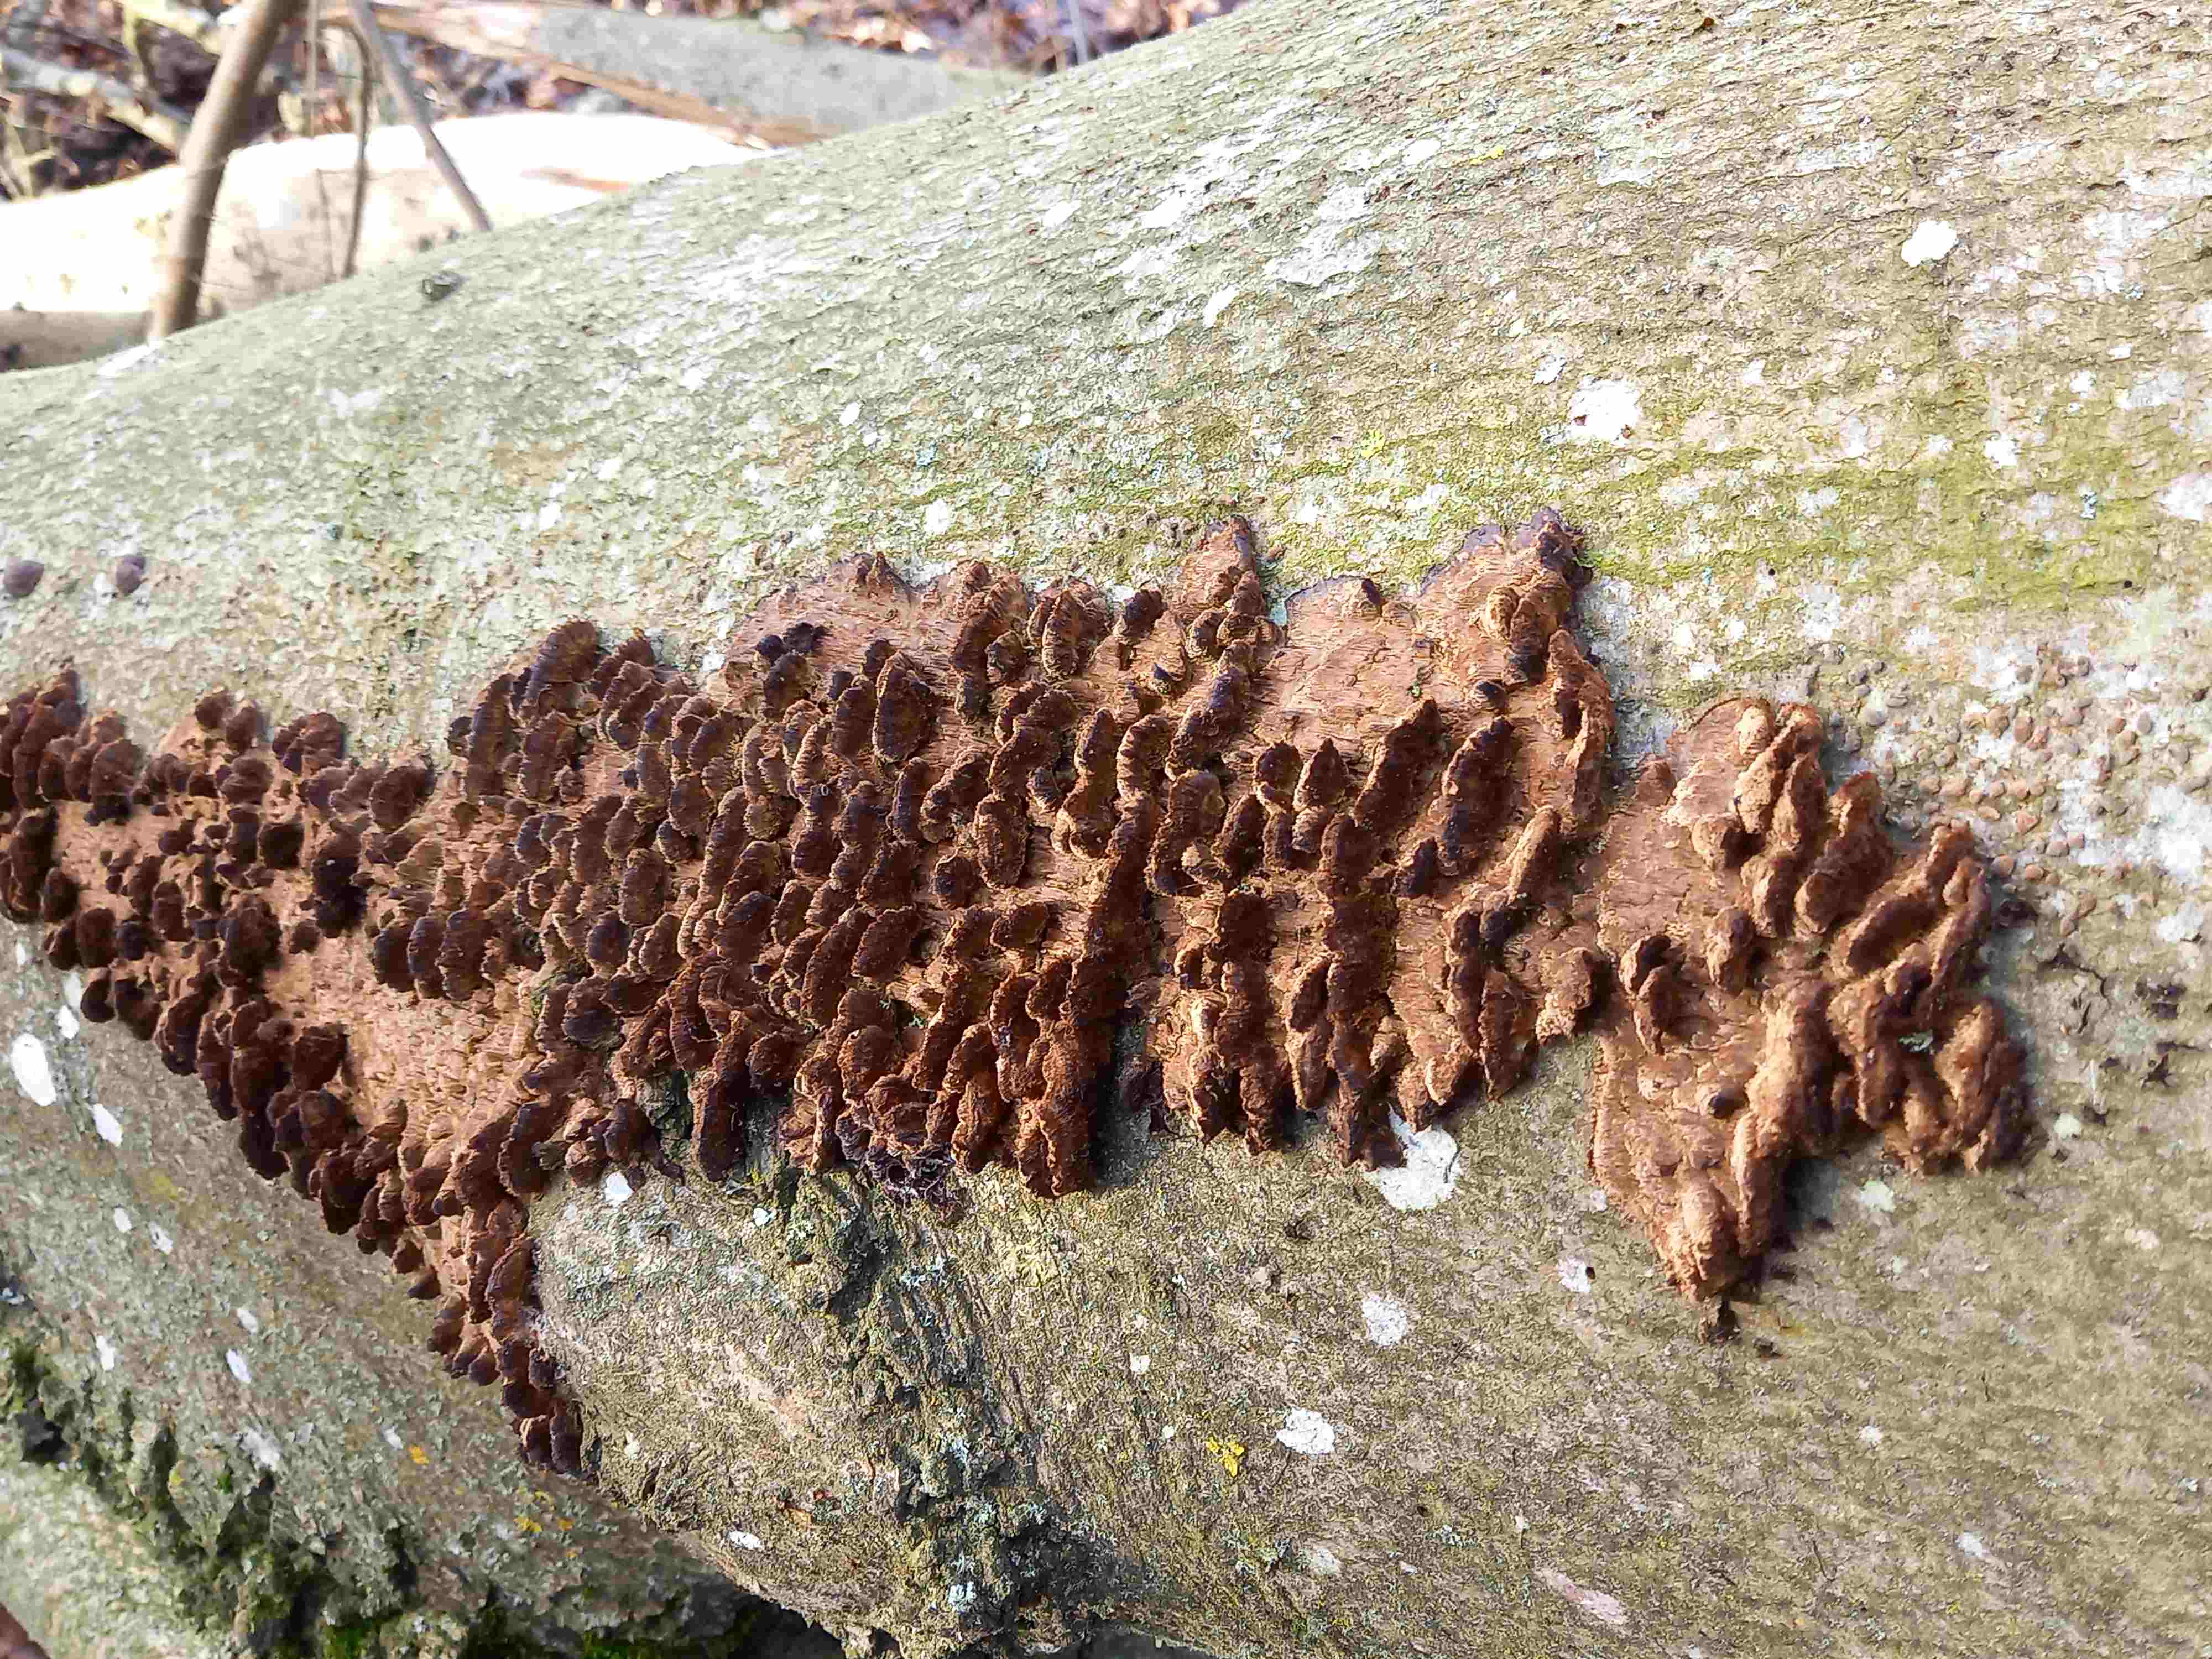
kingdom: Fungi
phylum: Basidiomycota
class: Agaricomycetes
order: Hymenochaetales
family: Hymenochaetaceae
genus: Mensularia
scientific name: Mensularia nodulosa
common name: bøge-spejlporesvamp
